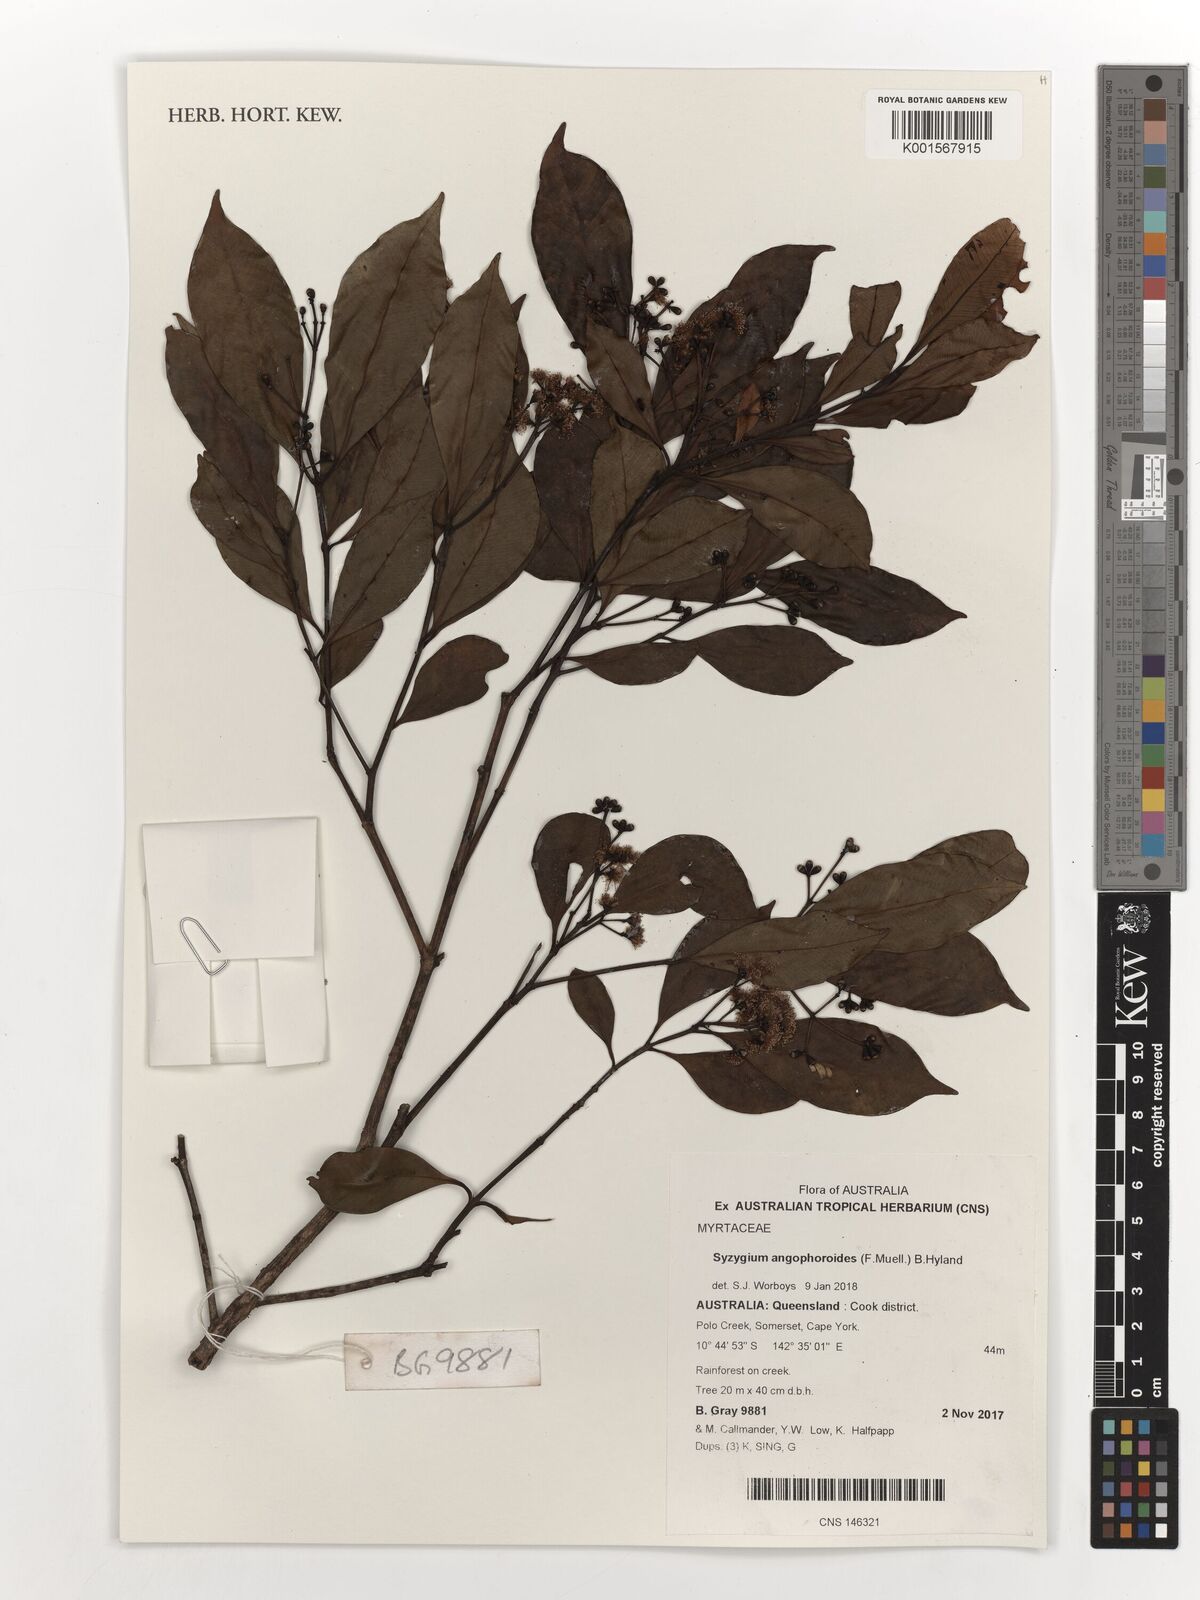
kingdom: Plantae
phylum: Tracheophyta
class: Magnoliopsida
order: Myrtales
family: Myrtaceae
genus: Syzygium
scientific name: Syzygium angophoroides
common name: Swamp satinash
